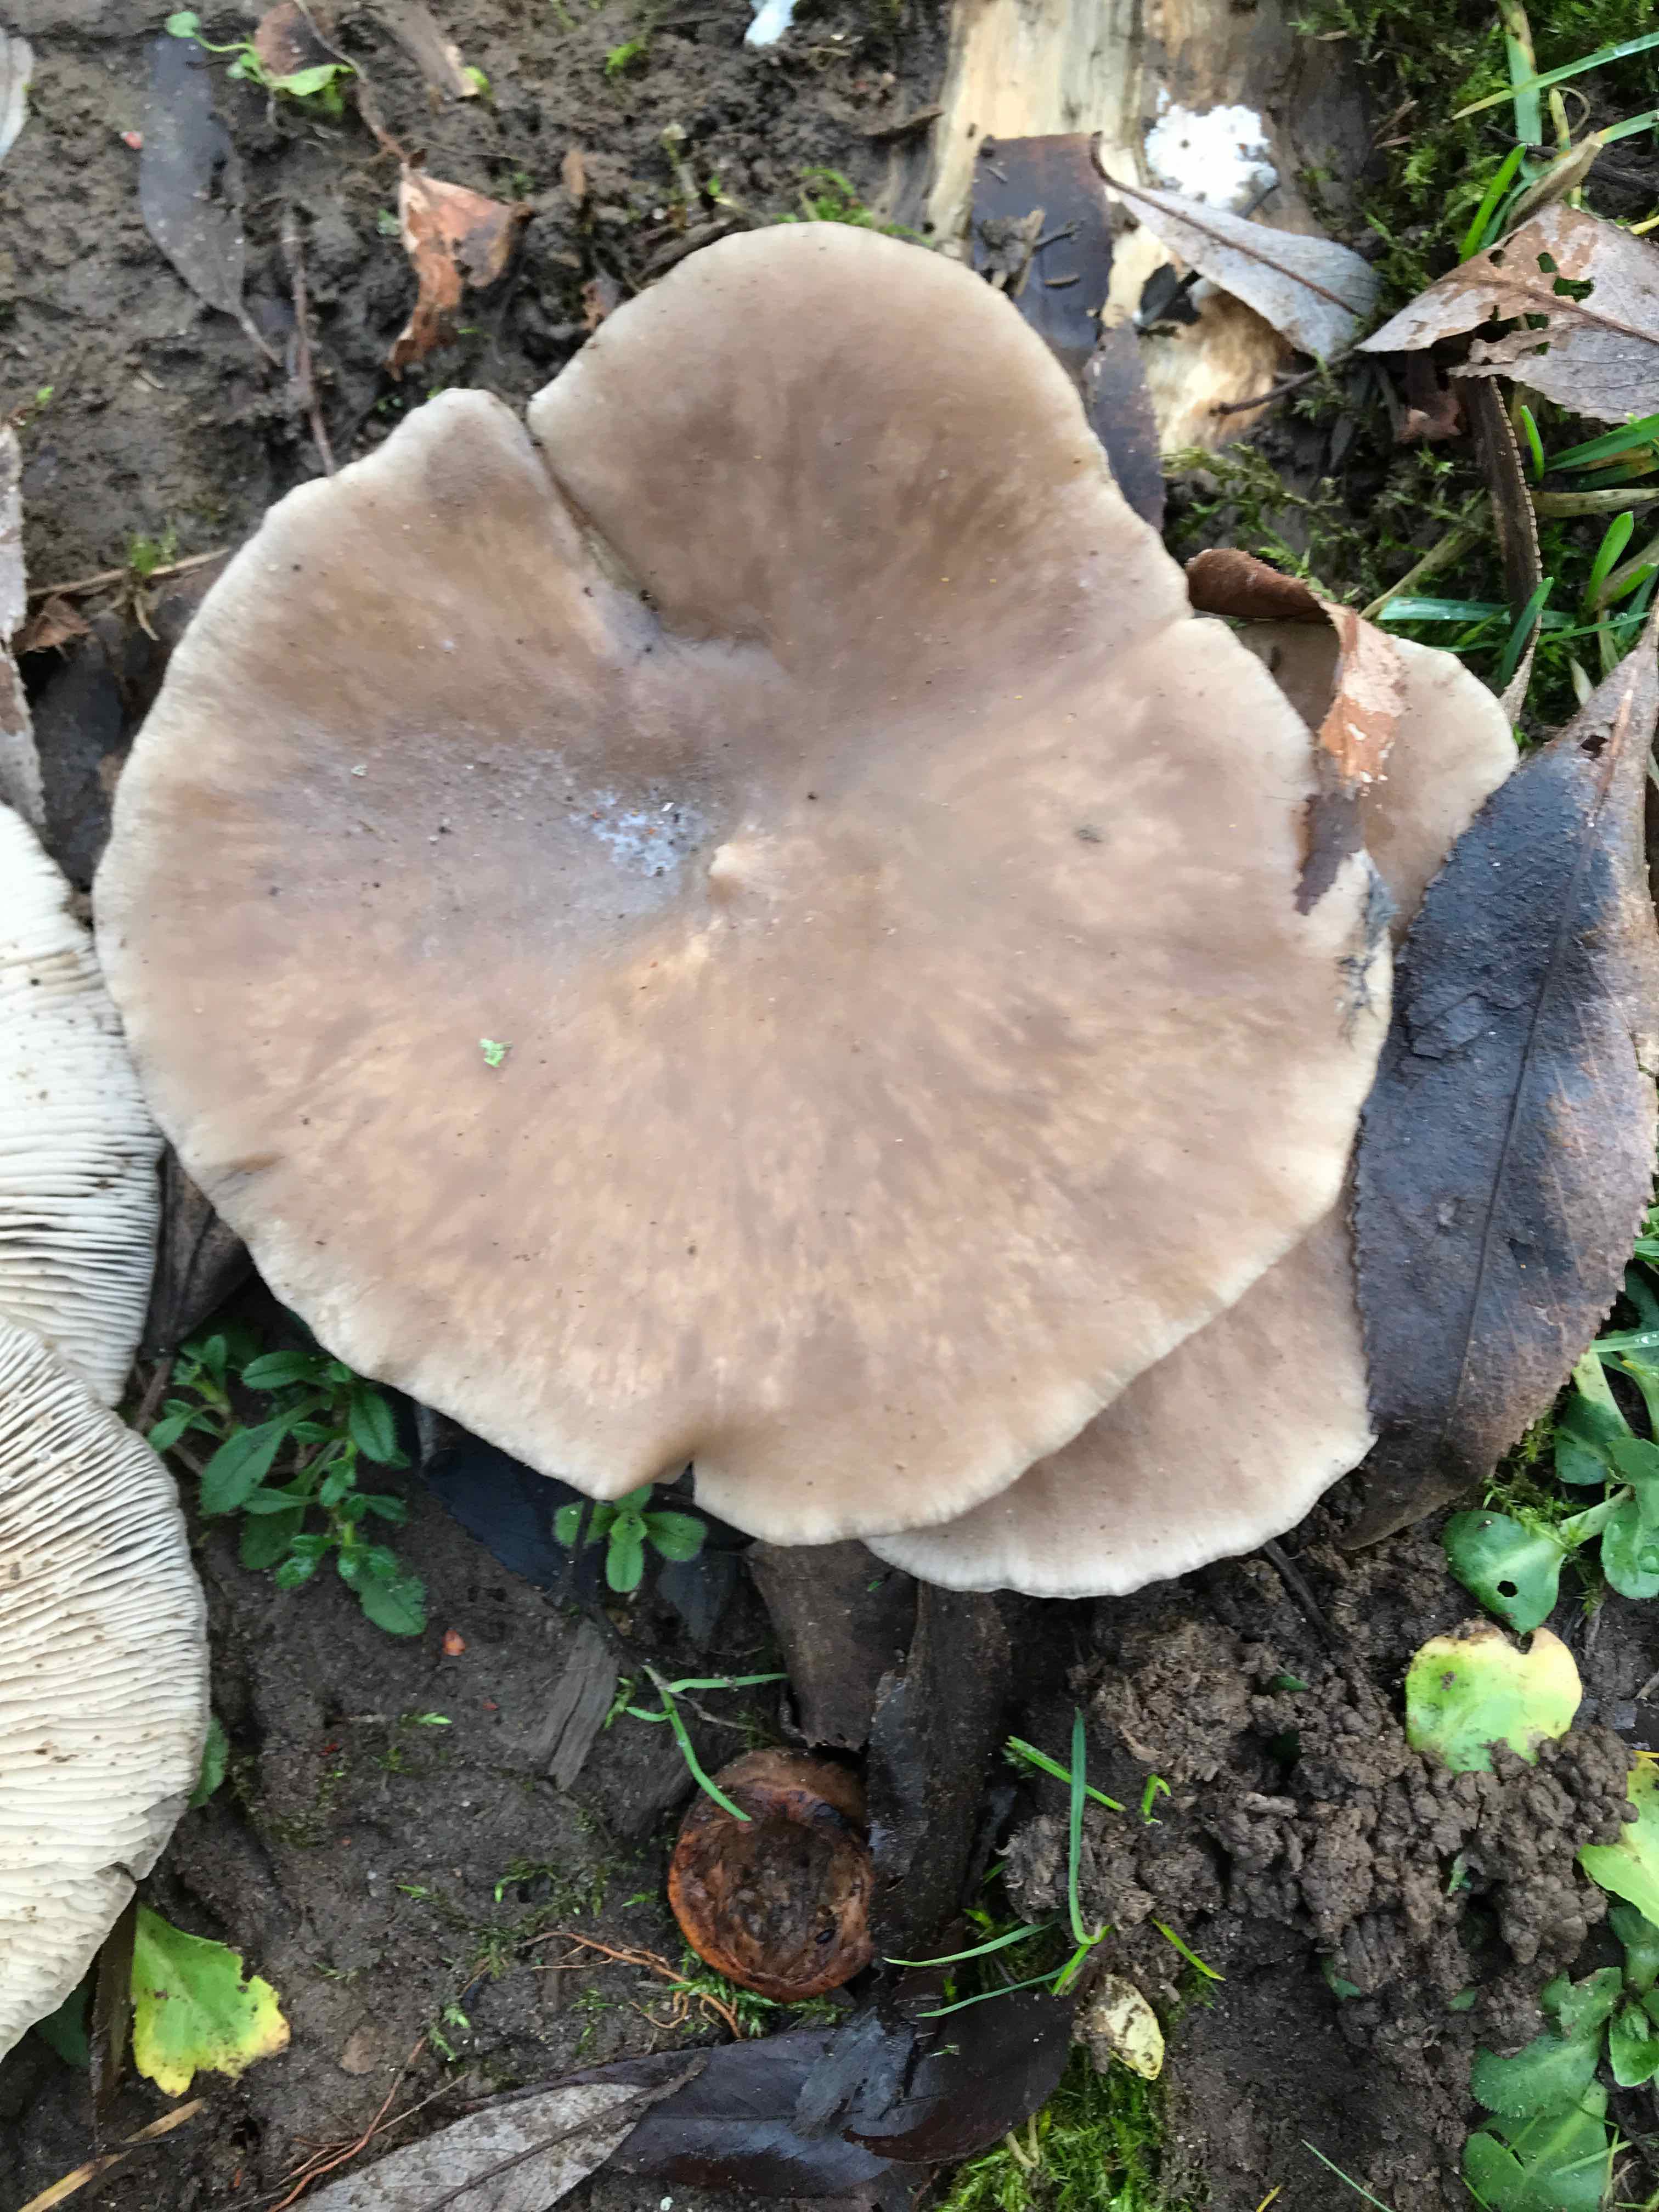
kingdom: Fungi
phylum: Basidiomycota
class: Agaricomycetes
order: Agaricales
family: Pleurotaceae
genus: Pleurotus
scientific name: Pleurotus ostreatus
